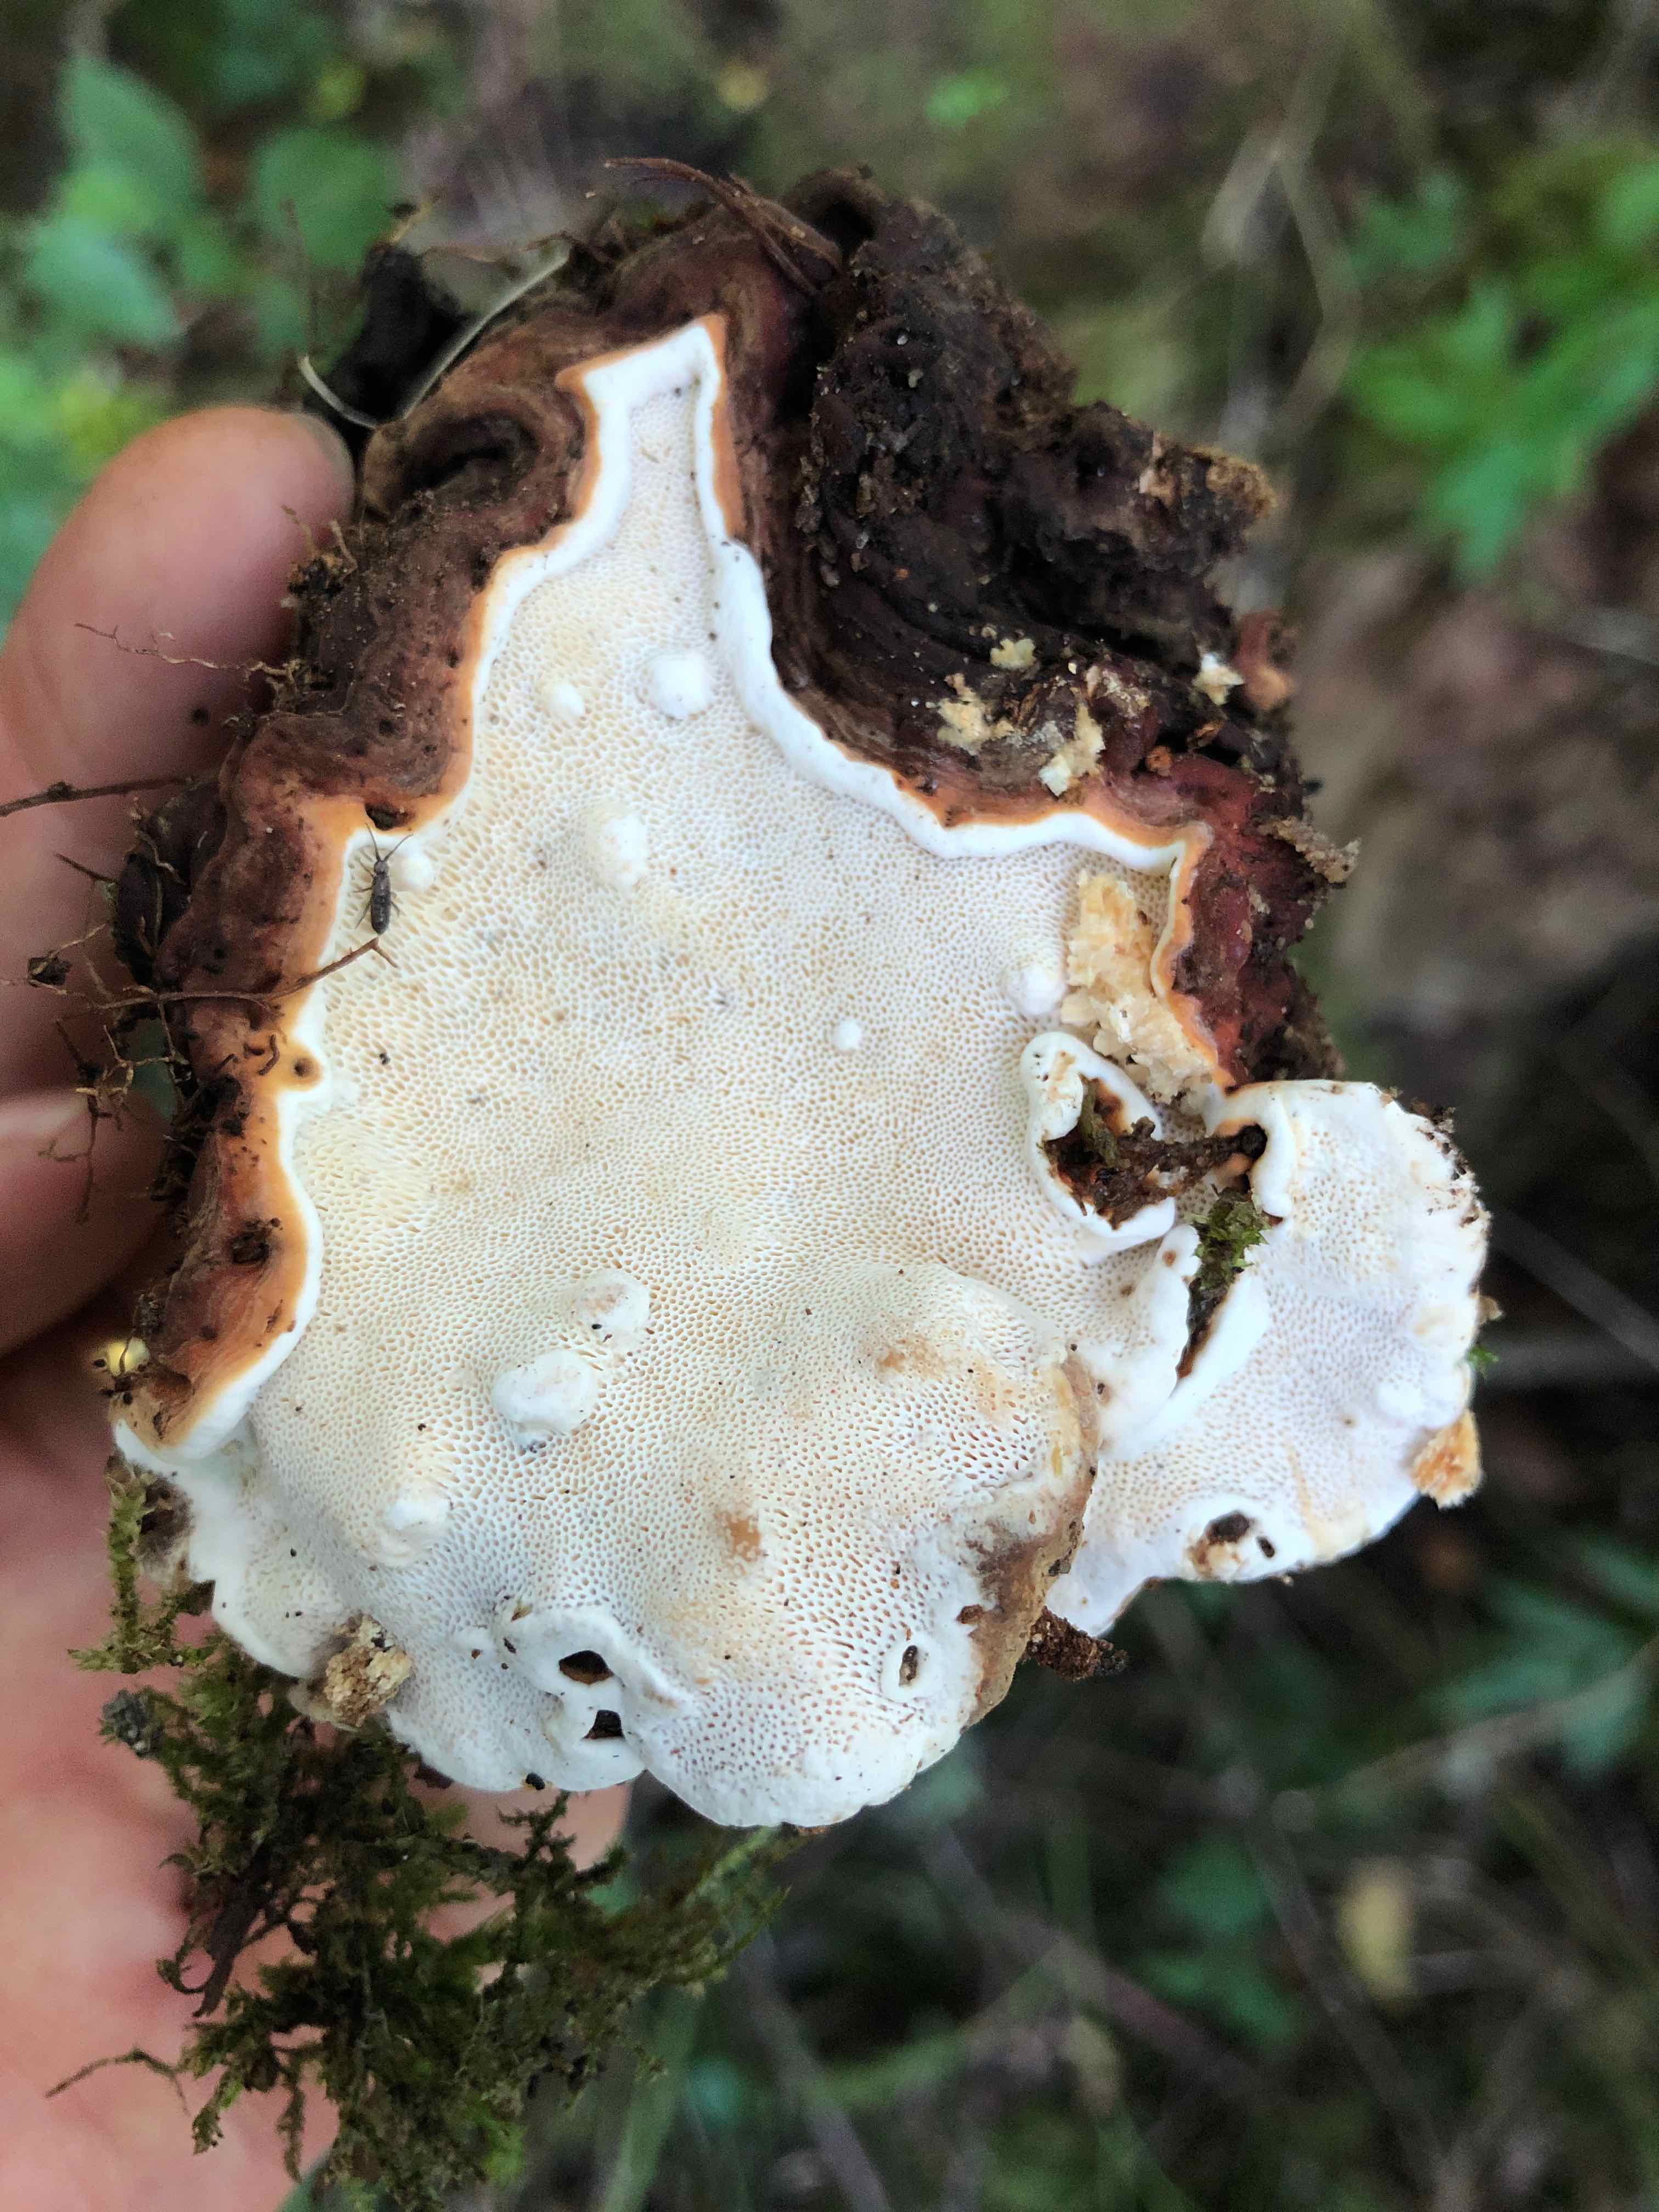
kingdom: Fungi
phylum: Basidiomycota
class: Agaricomycetes
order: Russulales
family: Bondarzewiaceae
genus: Heterobasidion
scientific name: Heterobasidion annosum
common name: almindelig rodfordærver
